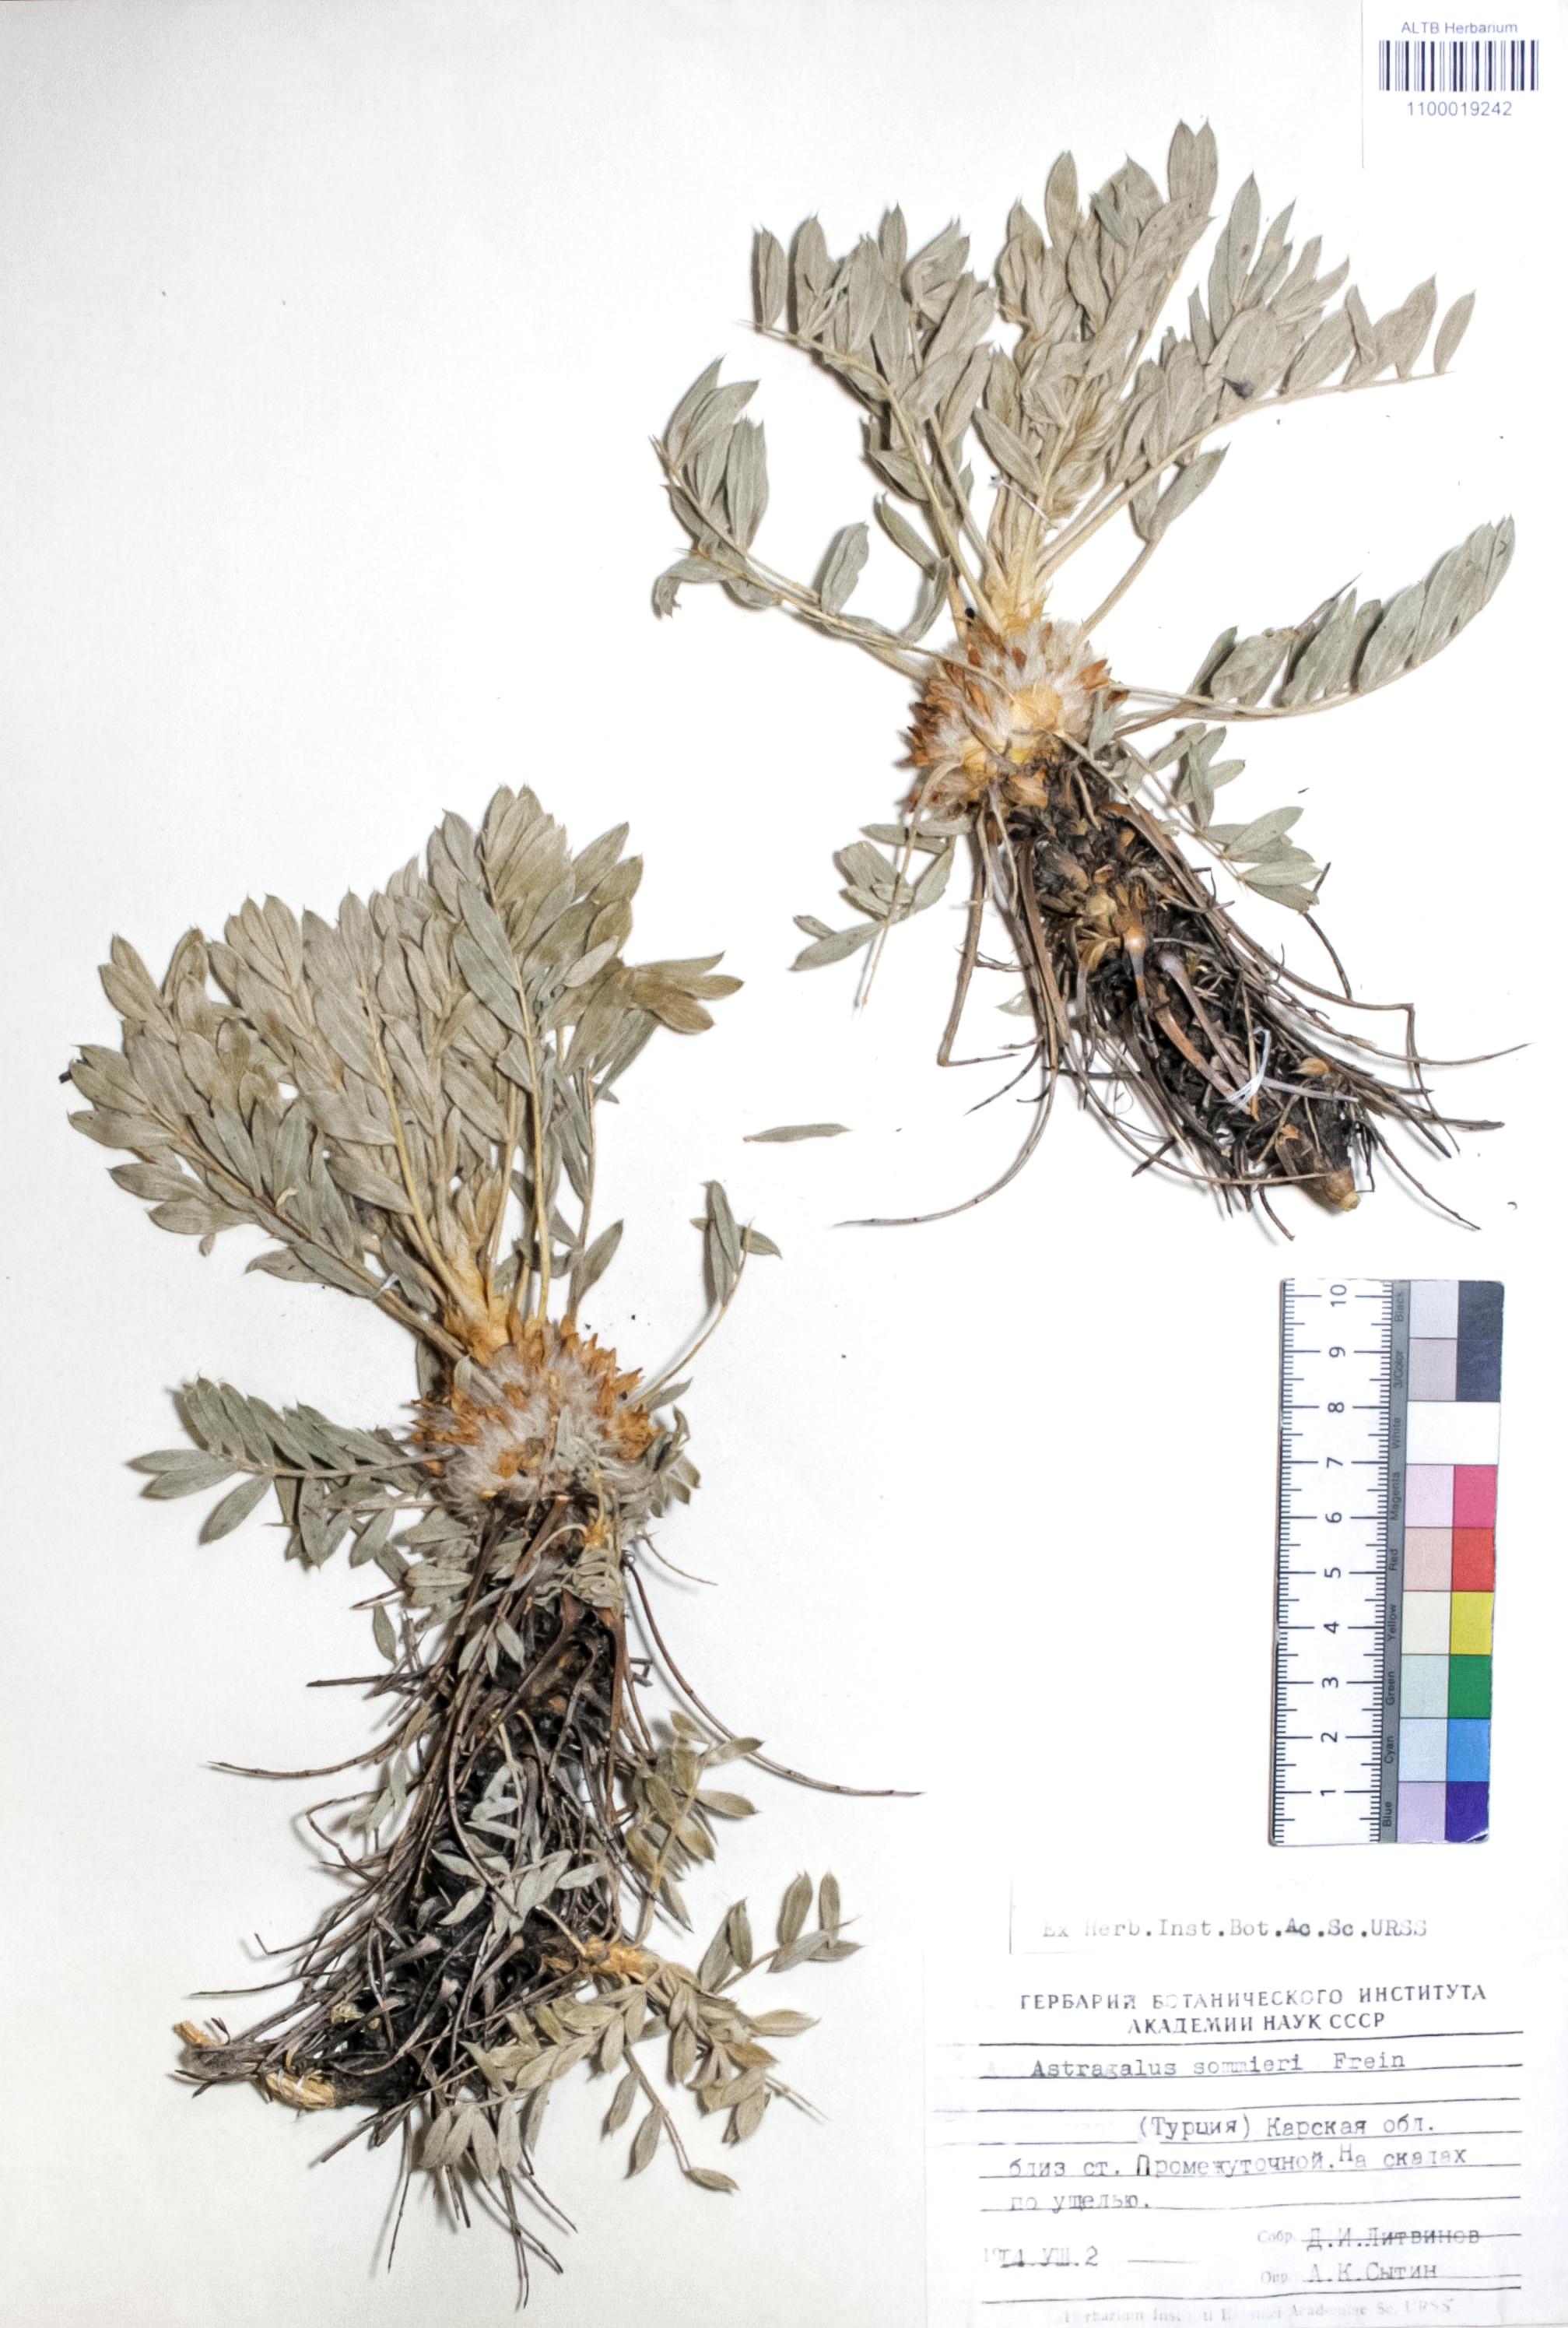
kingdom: Plantae
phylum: Tracheophyta
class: Magnoliopsida
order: Fabales
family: Fabaceae
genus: Astragalus
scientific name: Astragalus cephalotes
